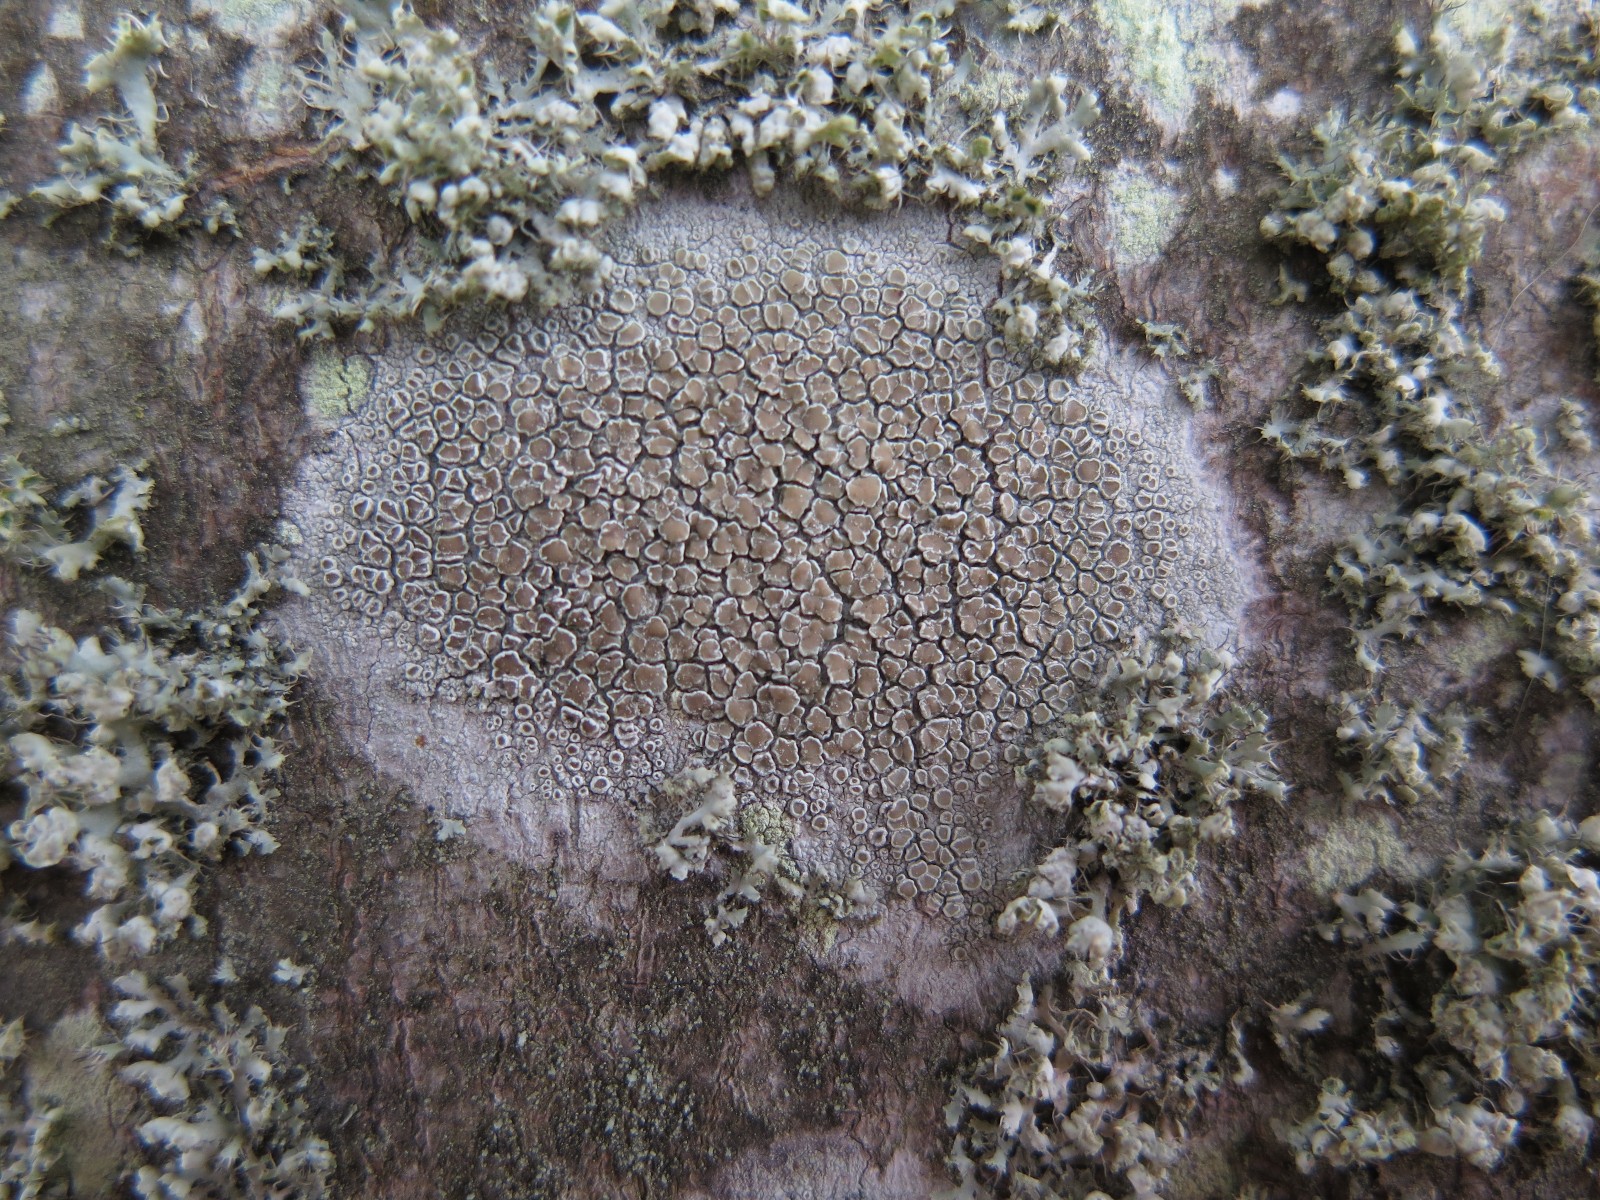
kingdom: Fungi
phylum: Ascomycota
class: Lecanoromycetes
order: Lecanorales
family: Lecanoraceae
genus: Lecanora
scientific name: Lecanora chlarotera
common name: brun kantskivelav
